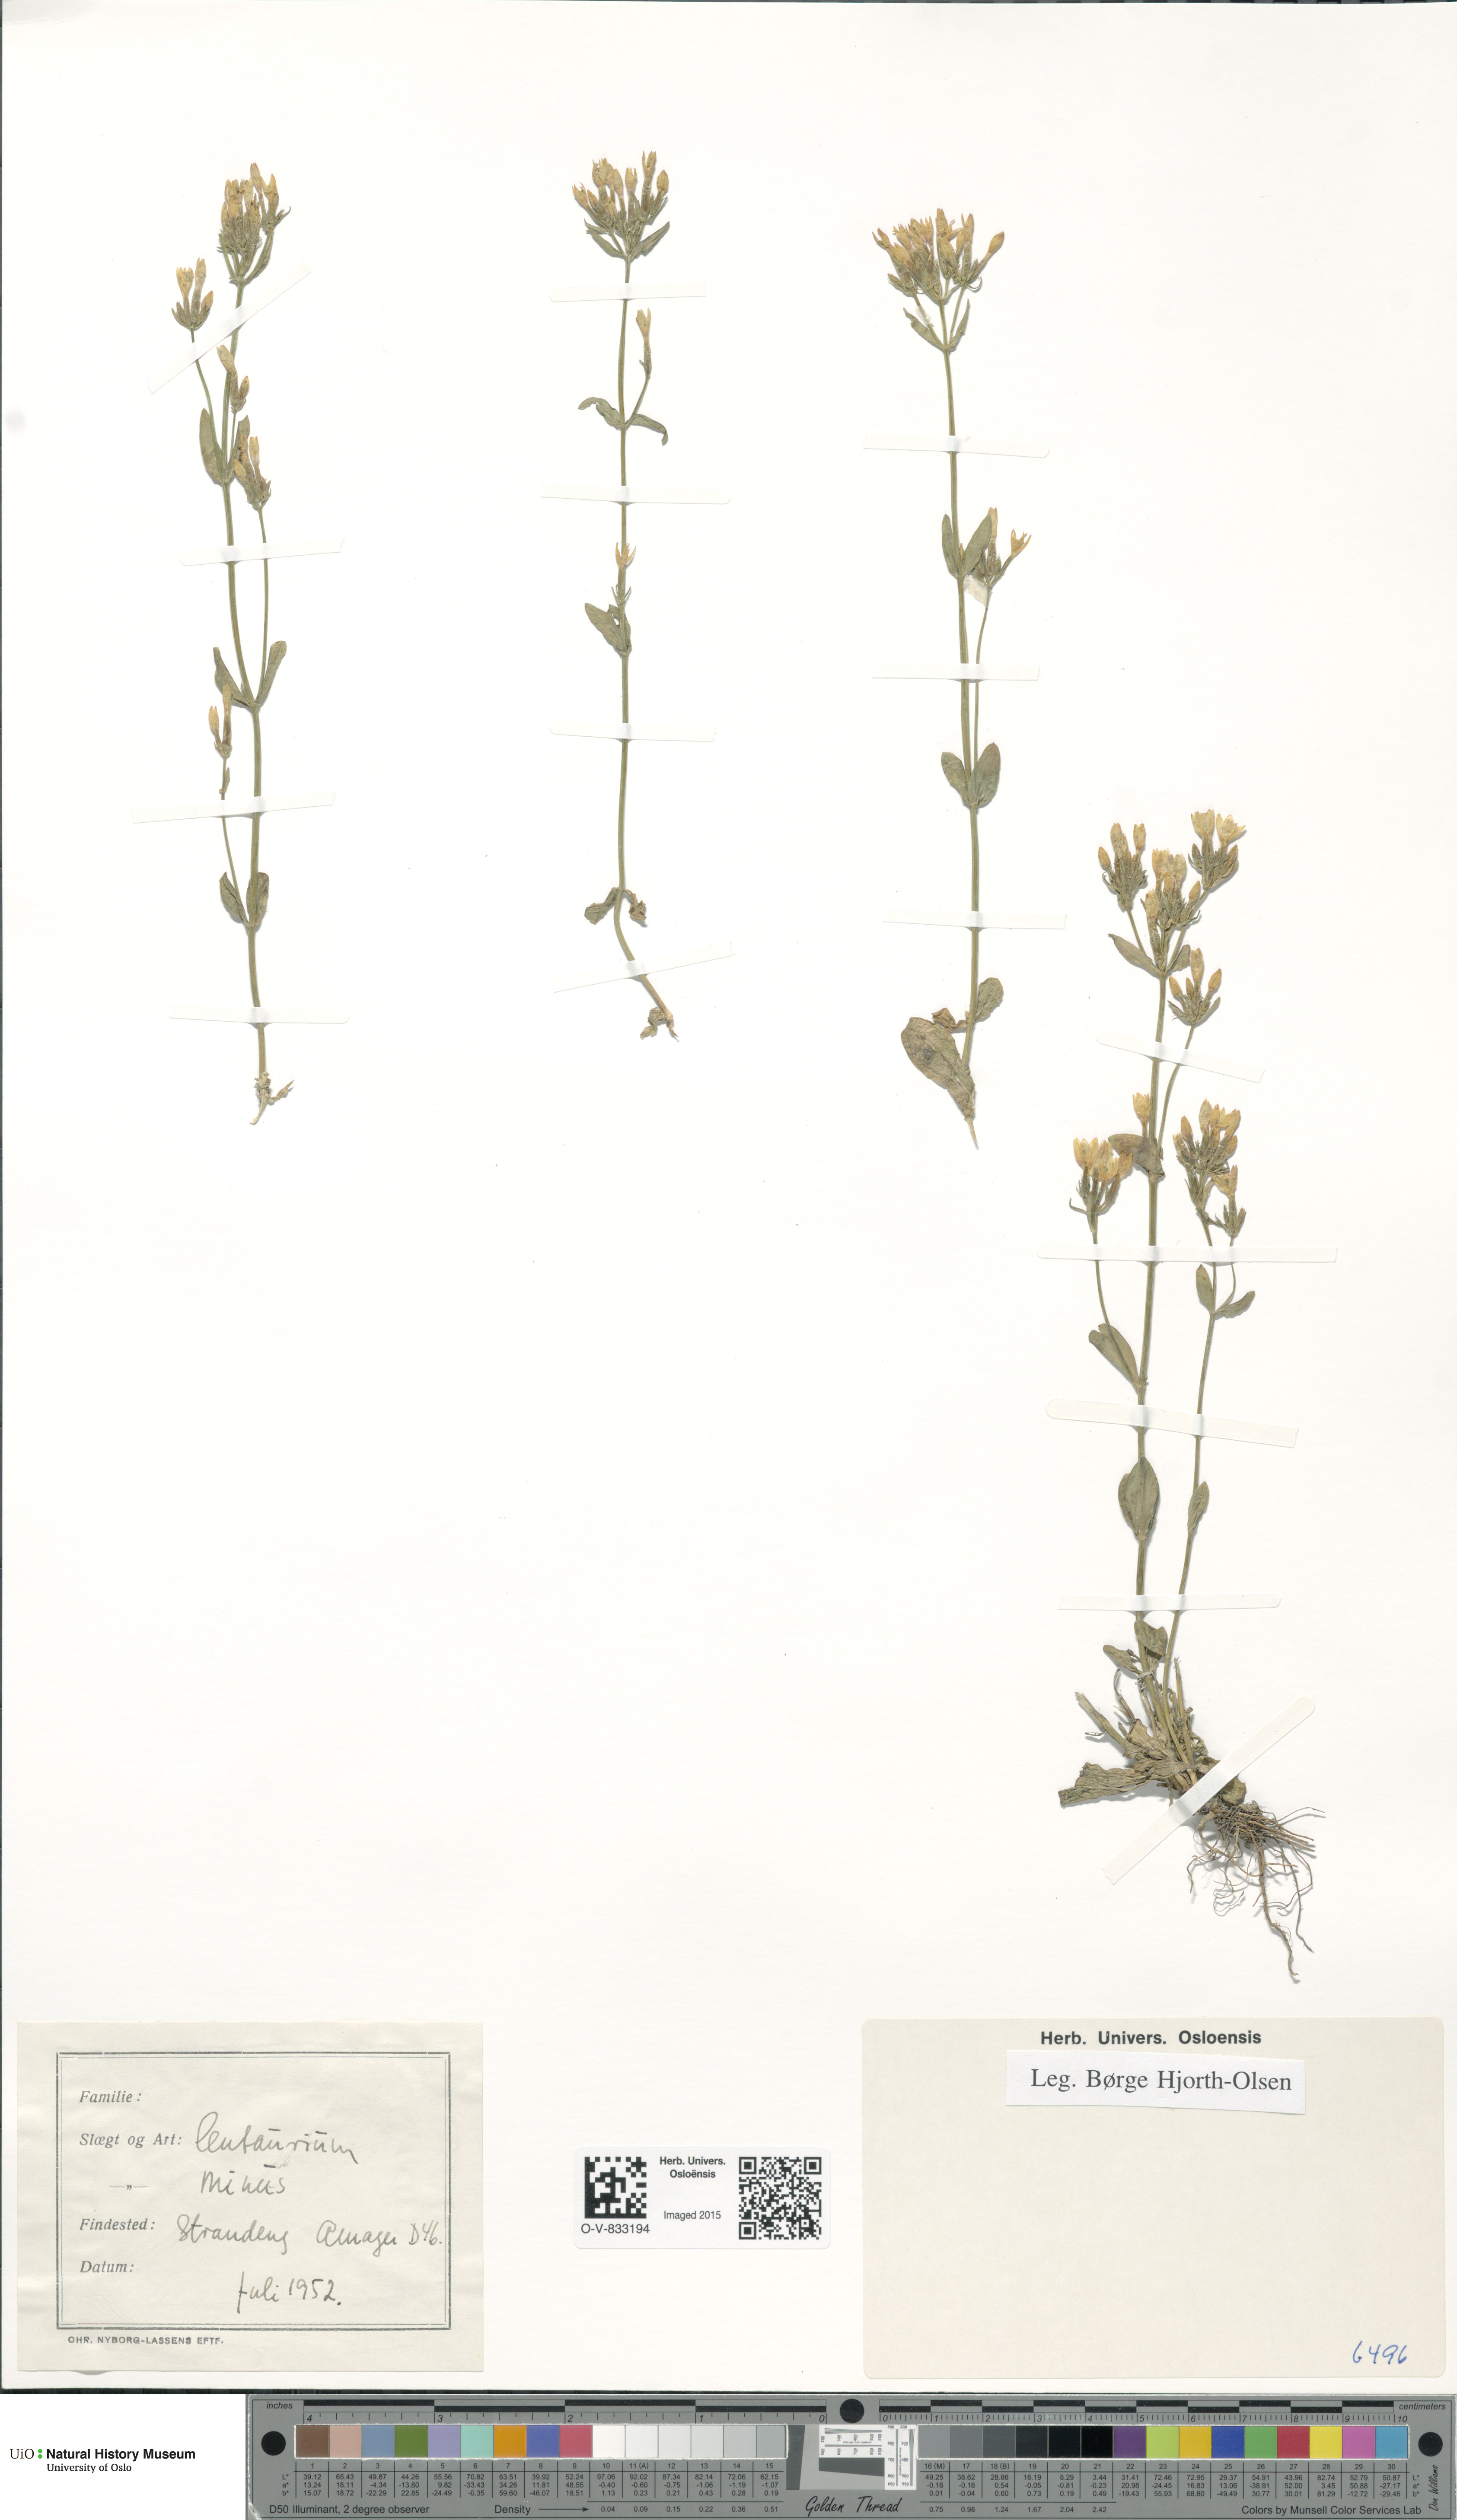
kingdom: Plantae
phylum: Tracheophyta
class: Magnoliopsida
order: Gentianales
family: Gentianaceae
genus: Centaurium
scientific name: Centaurium erythraea
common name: Common centaury
